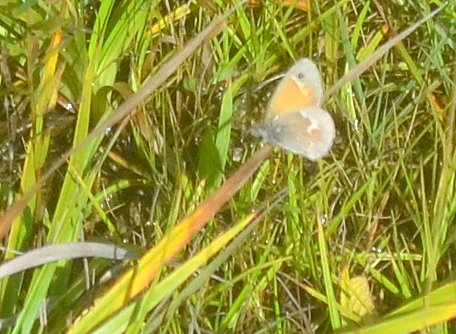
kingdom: Animalia
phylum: Arthropoda
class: Insecta
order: Lepidoptera
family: Nymphalidae
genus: Coenonympha
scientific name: Coenonympha tullia
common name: Large Heath
